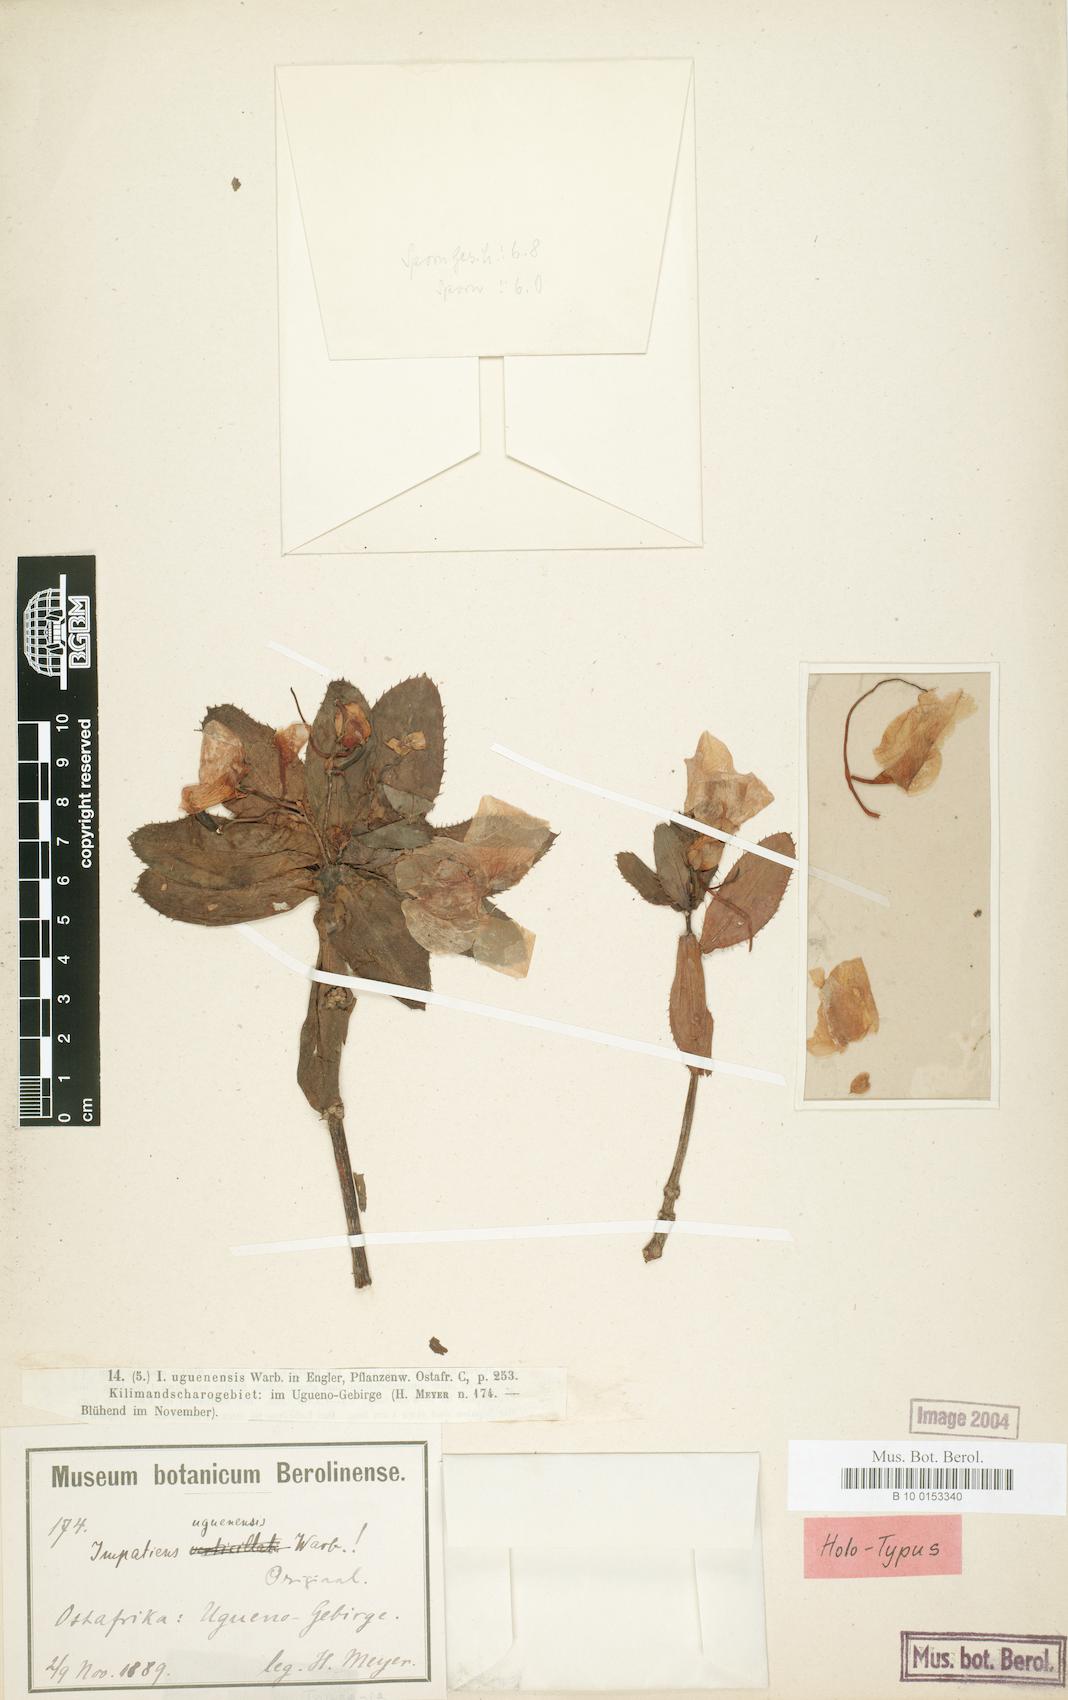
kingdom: Plantae
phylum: Tracheophyta
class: Magnoliopsida
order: Ericales
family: Balsaminaceae
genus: Impatiens
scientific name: Impatiens sodenii
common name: Oliver's touch-me-not
